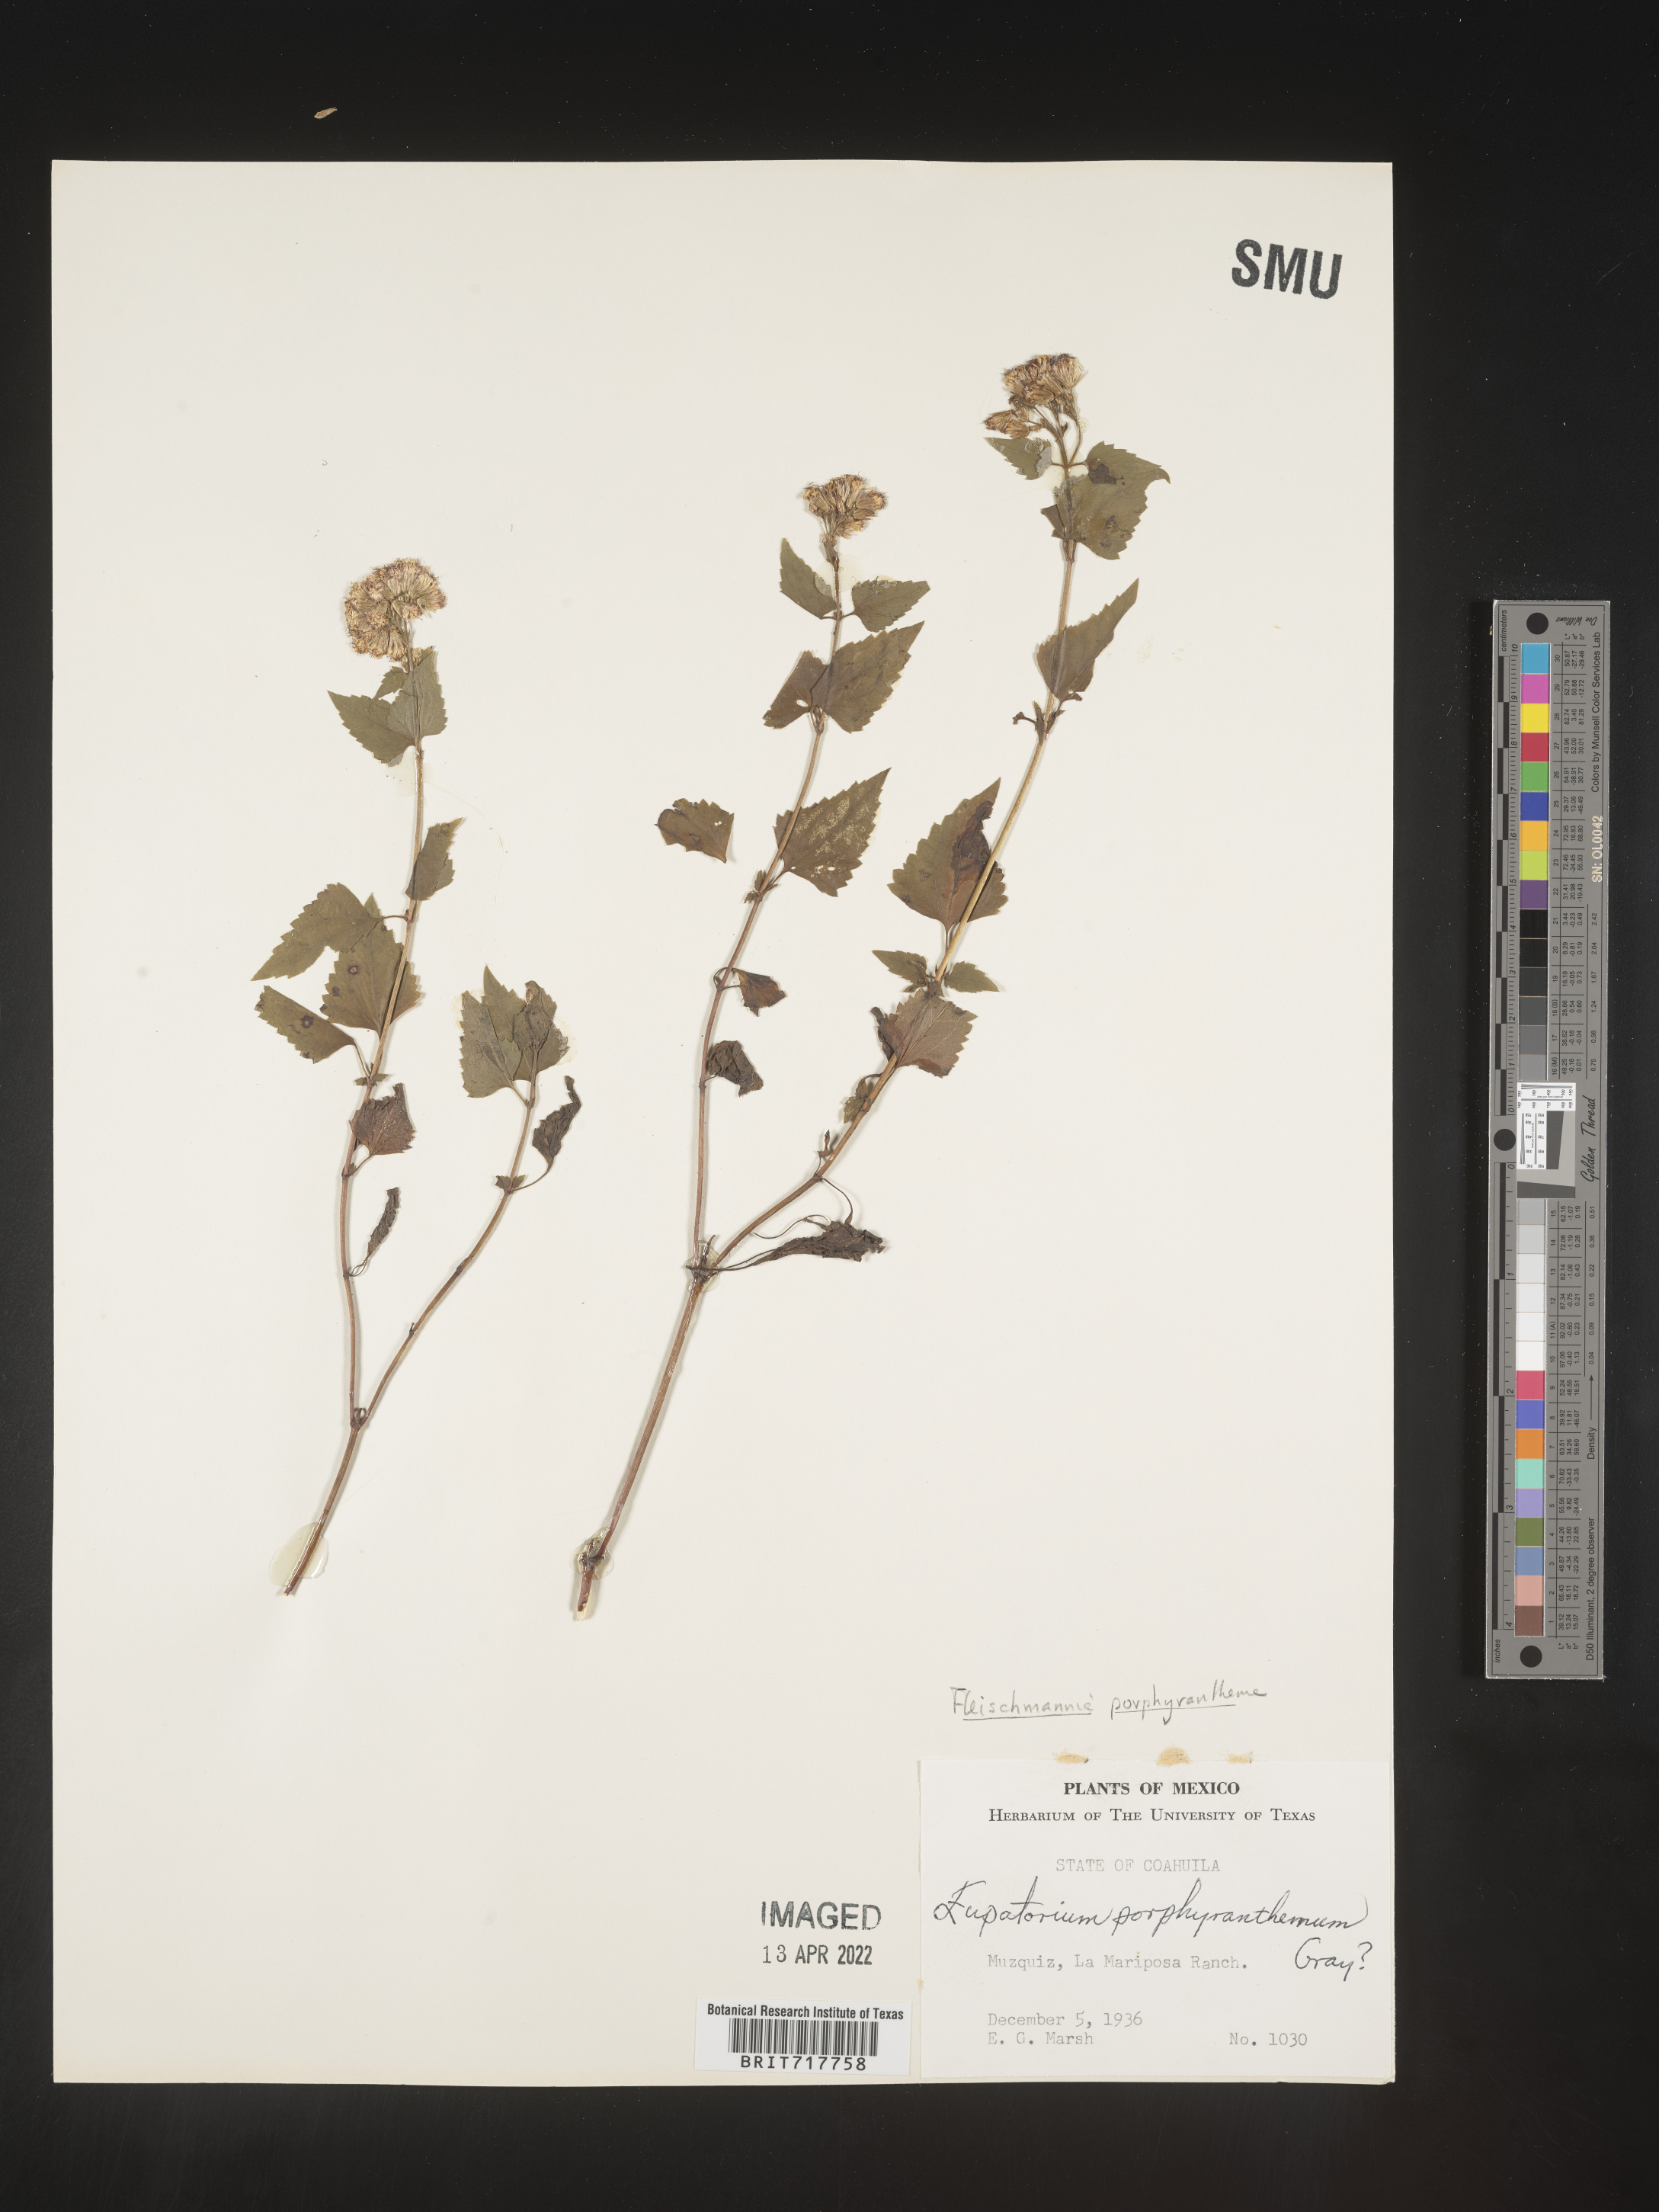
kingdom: Plantae
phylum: Tracheophyta
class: Magnoliopsida
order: Asterales
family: Asteraceae
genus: Fleischmannia
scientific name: Fleischmannia porphyranthema
